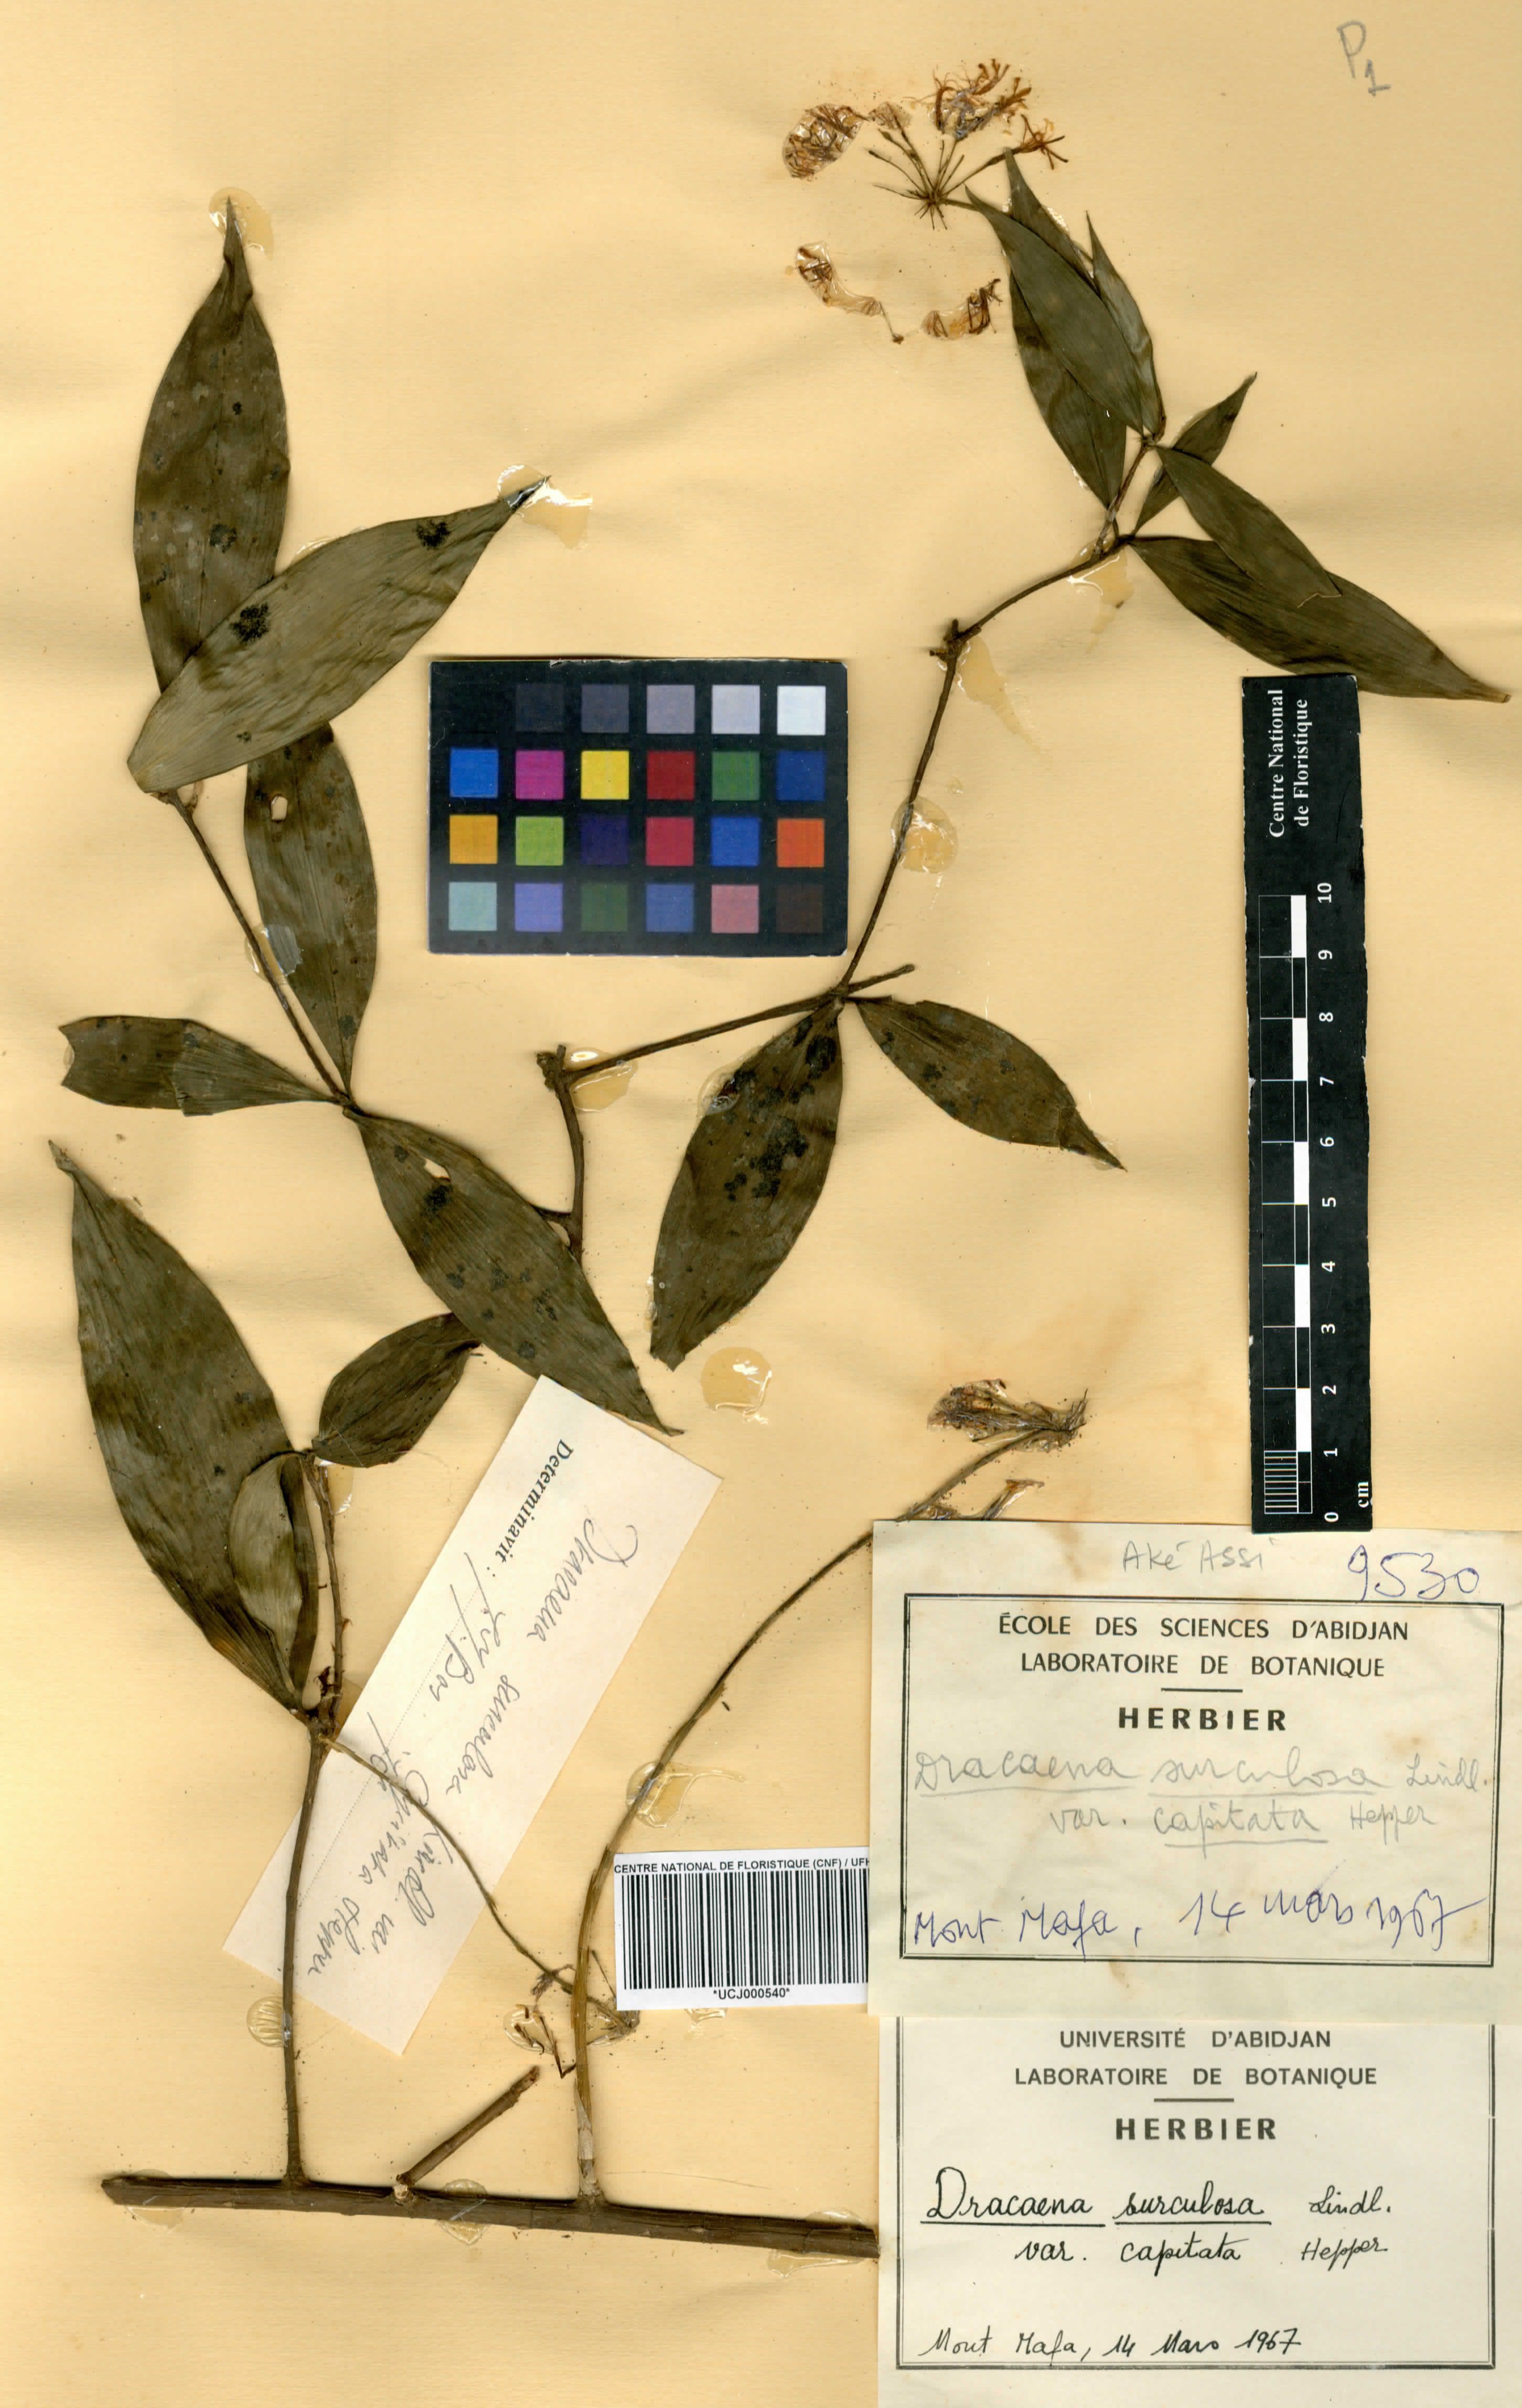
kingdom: Plantae
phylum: Tracheophyta
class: Liliopsida
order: Asparagales
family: Asparagaceae
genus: Dracaena
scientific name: Dracaena surculosa
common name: Spotted dracaena
